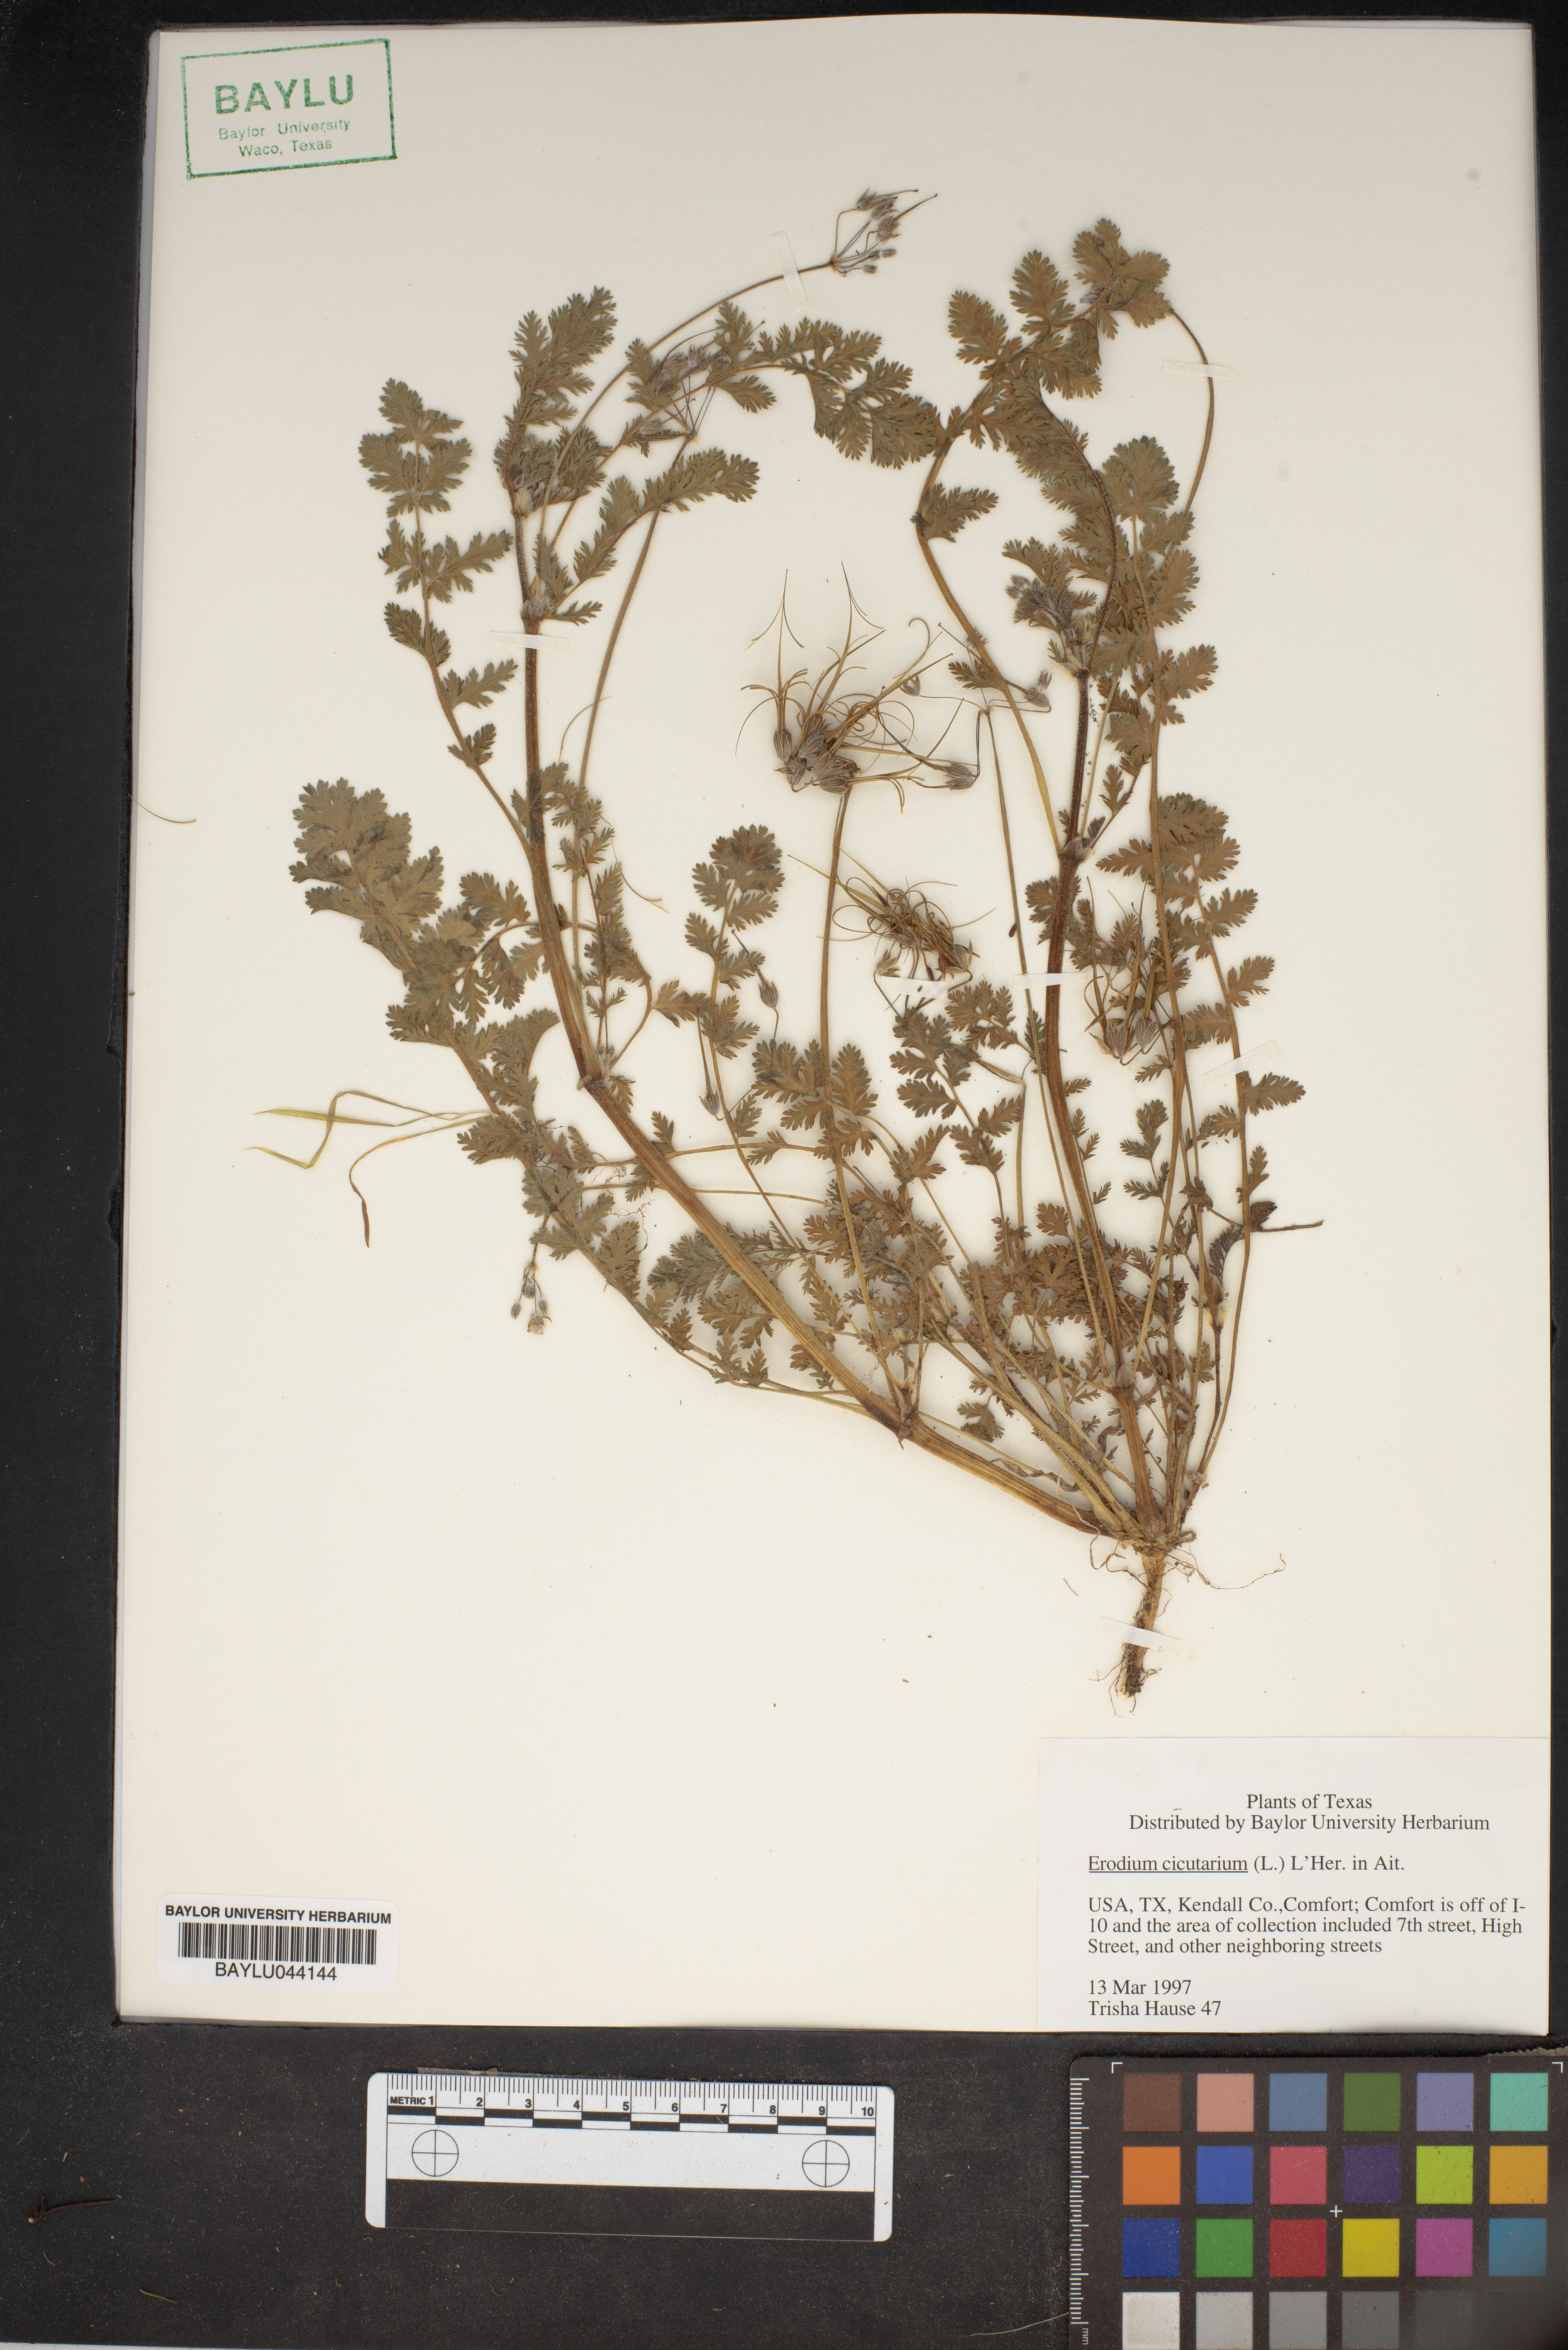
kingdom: Plantae
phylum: Tracheophyta
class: Magnoliopsida
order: Geraniales
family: Geraniaceae
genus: Erodium
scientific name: Erodium cicutarium
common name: Common stork's-bill
